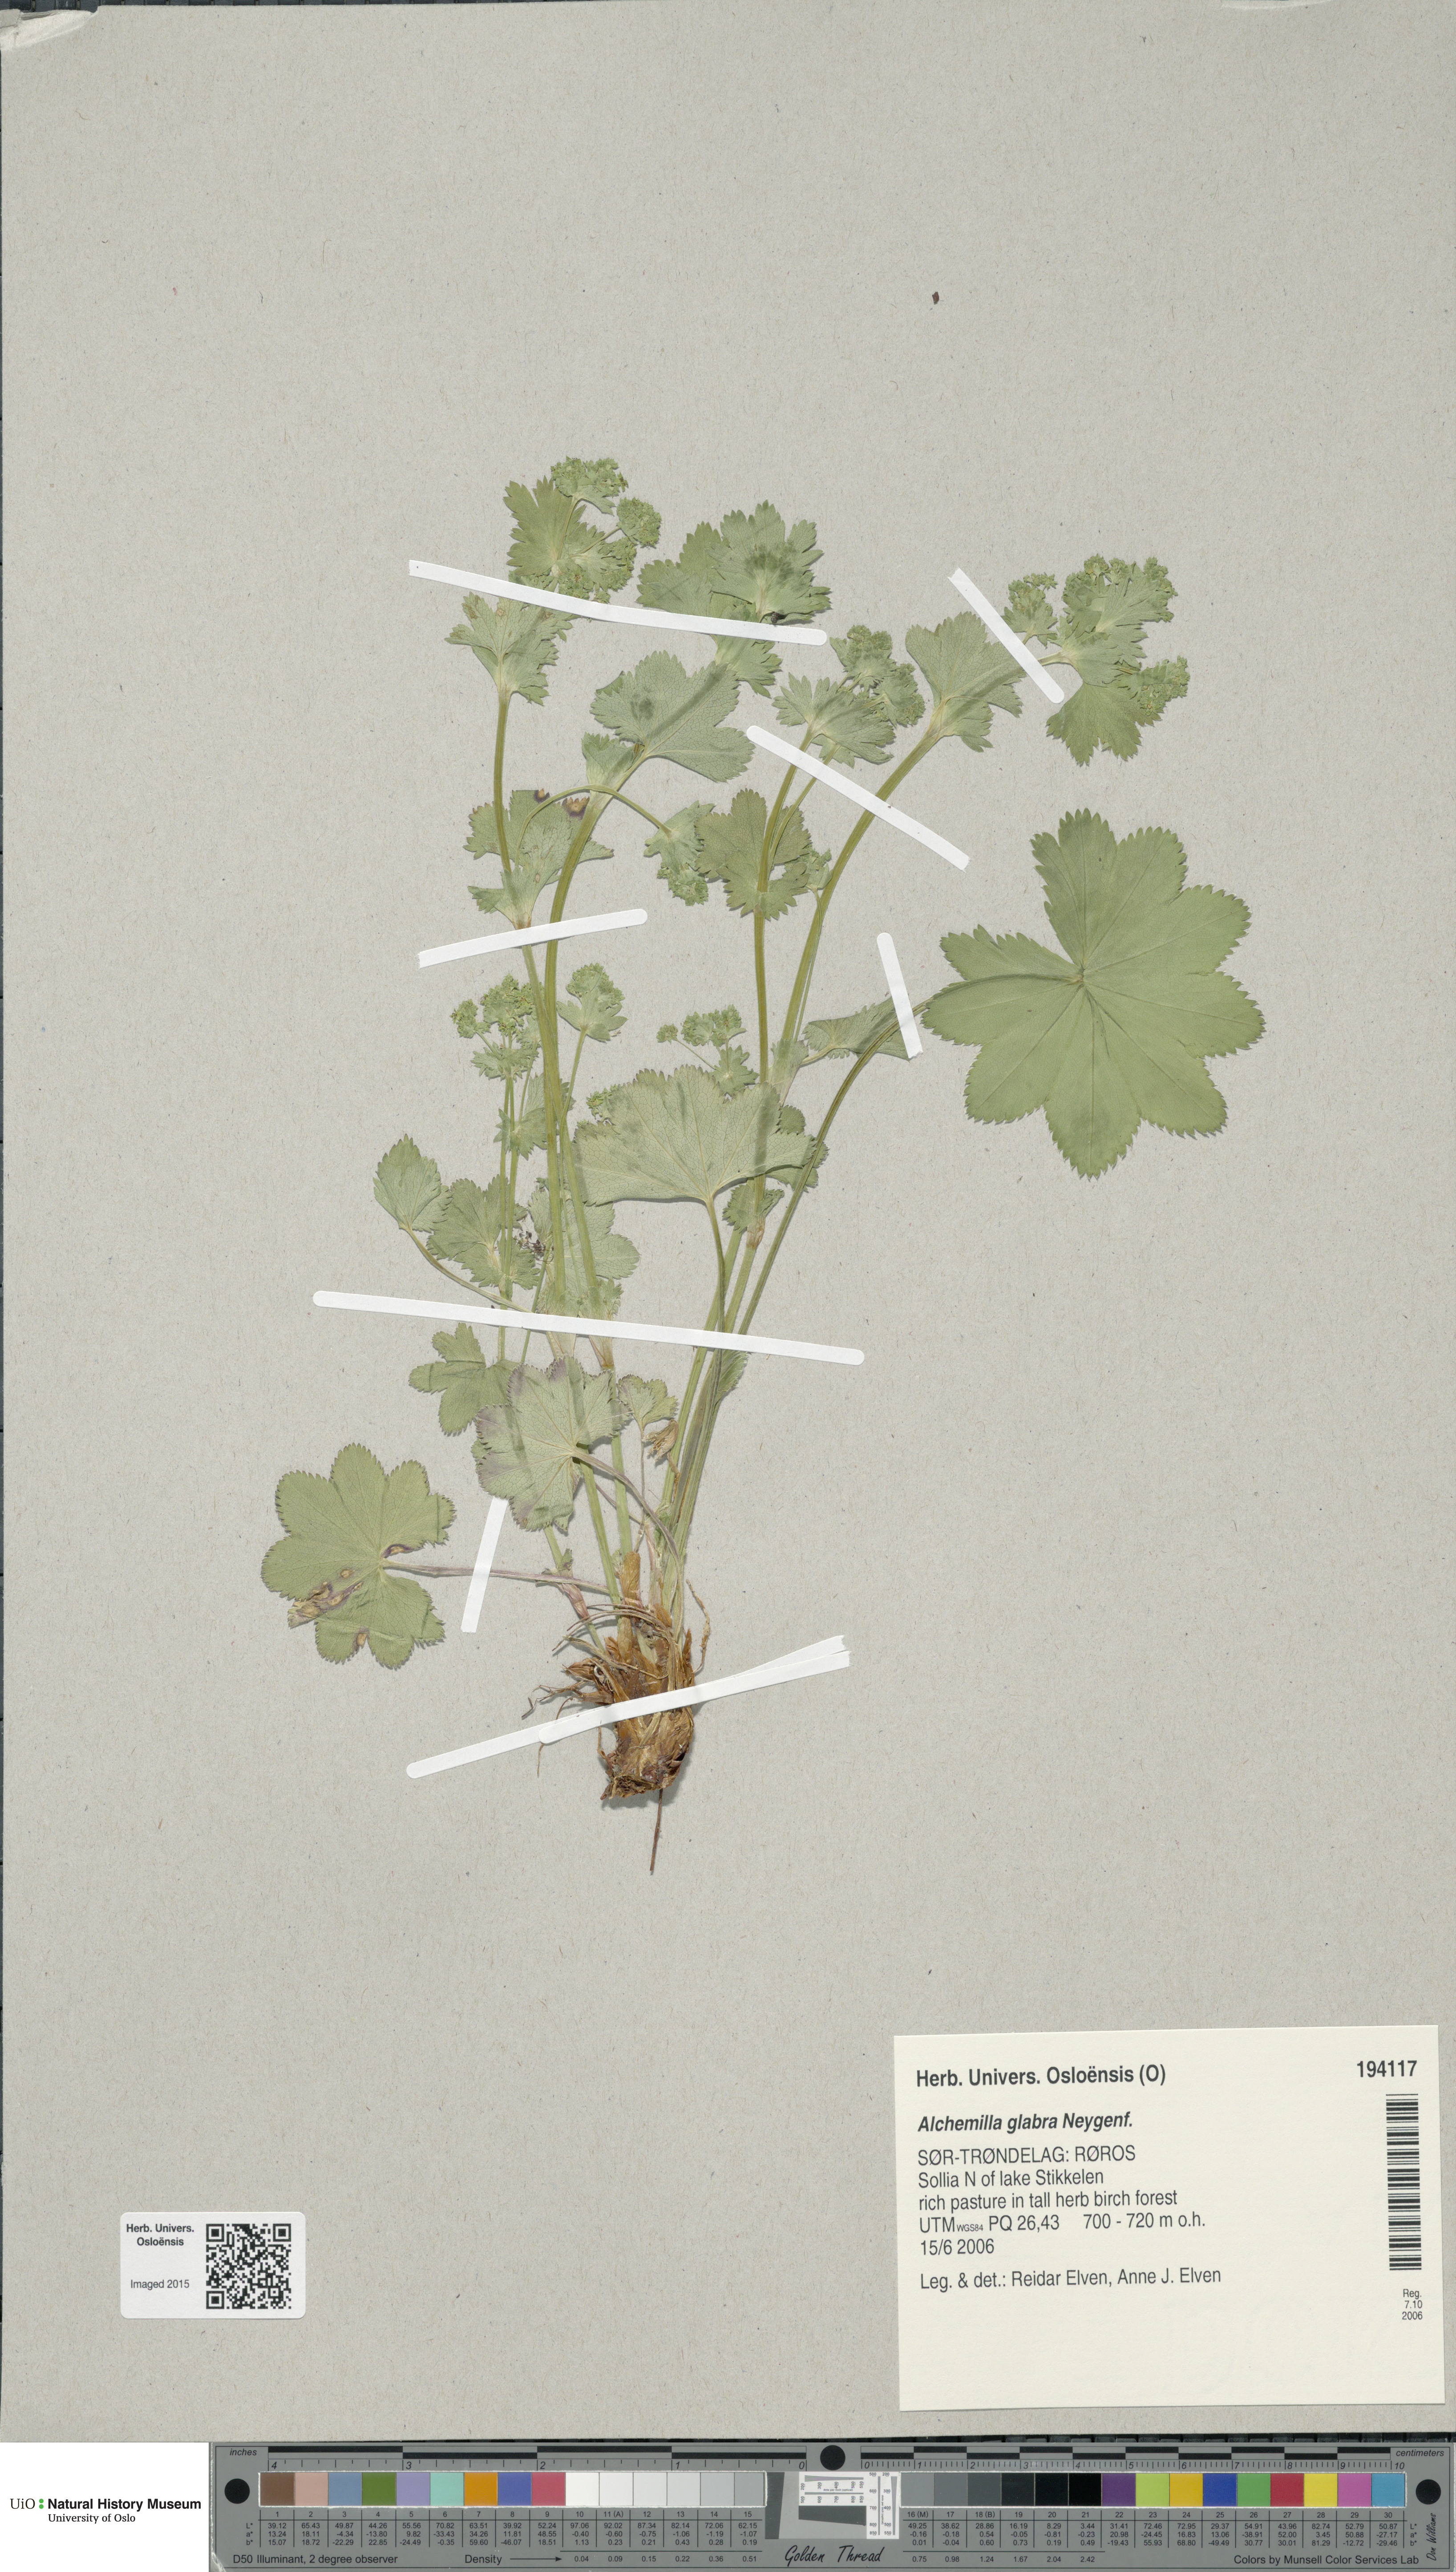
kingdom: Plantae
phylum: Tracheophyta
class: Magnoliopsida
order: Rosales
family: Rosaceae
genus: Alchemilla
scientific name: Alchemilla glabra
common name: Smooth lady's-mantle
